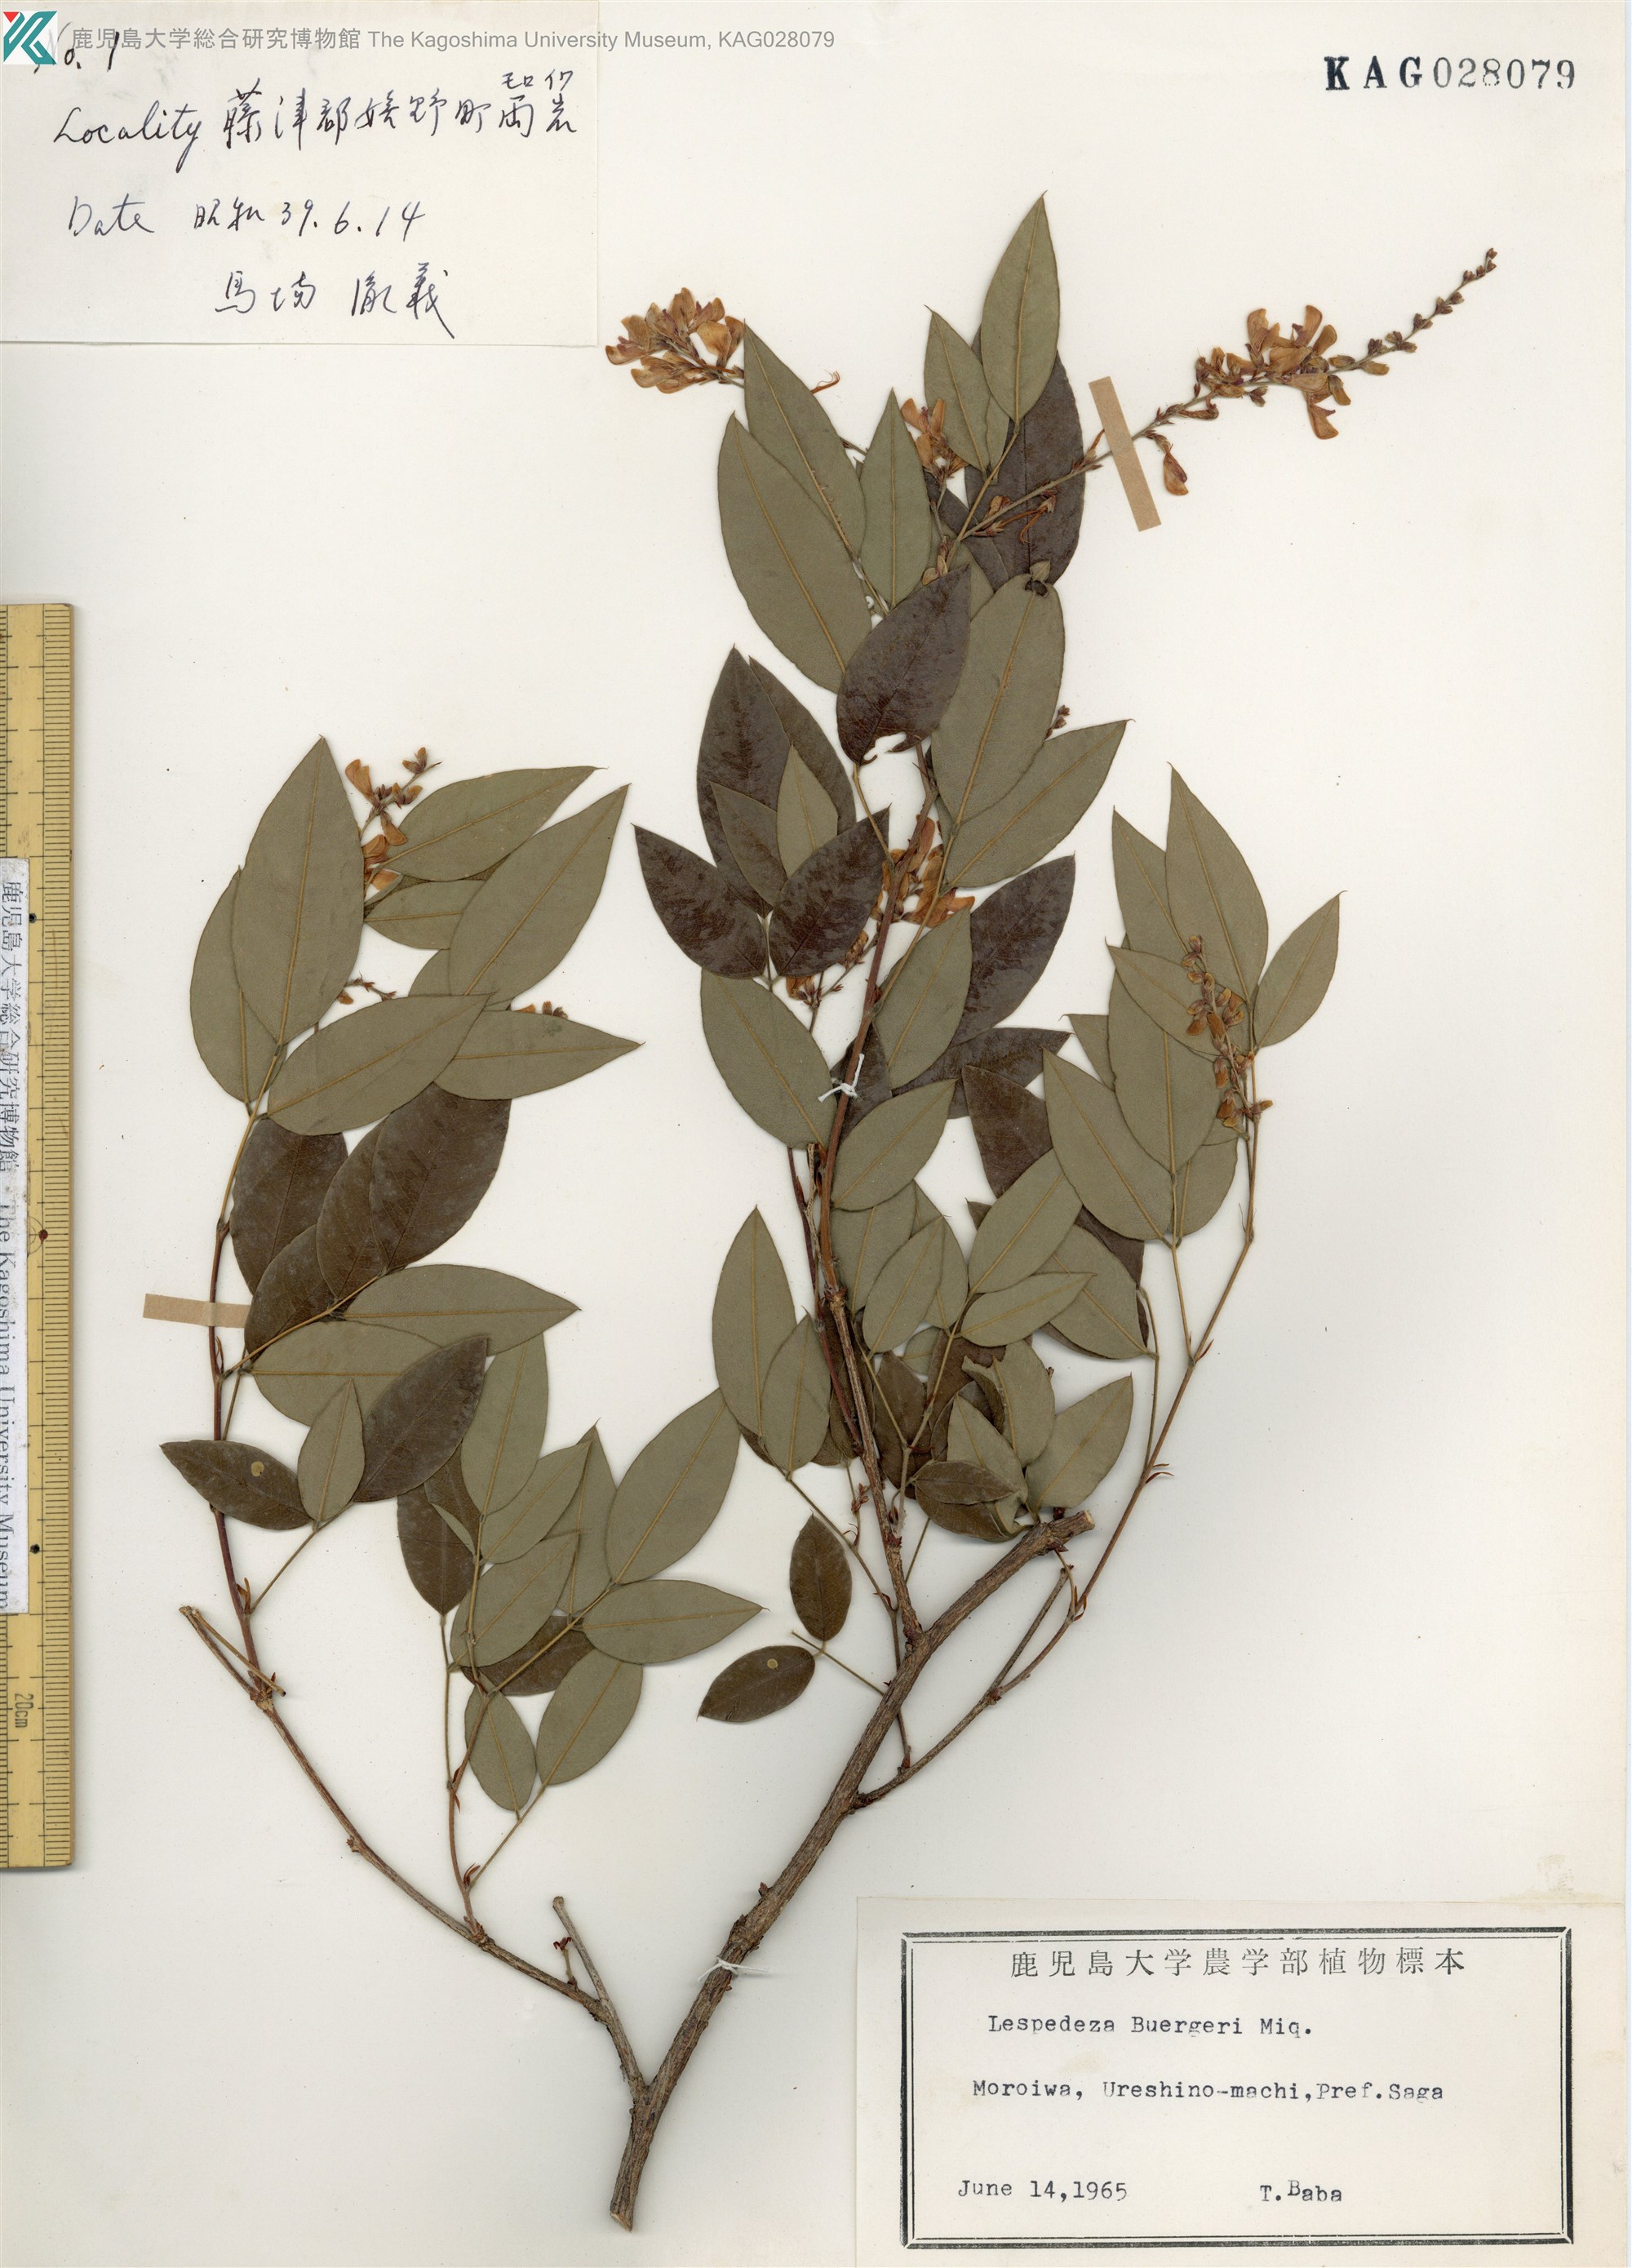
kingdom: Plantae
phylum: Tracheophyta
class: Magnoliopsida
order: Fabales
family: Fabaceae
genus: Lespedeza
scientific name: Lespedeza buergeri
